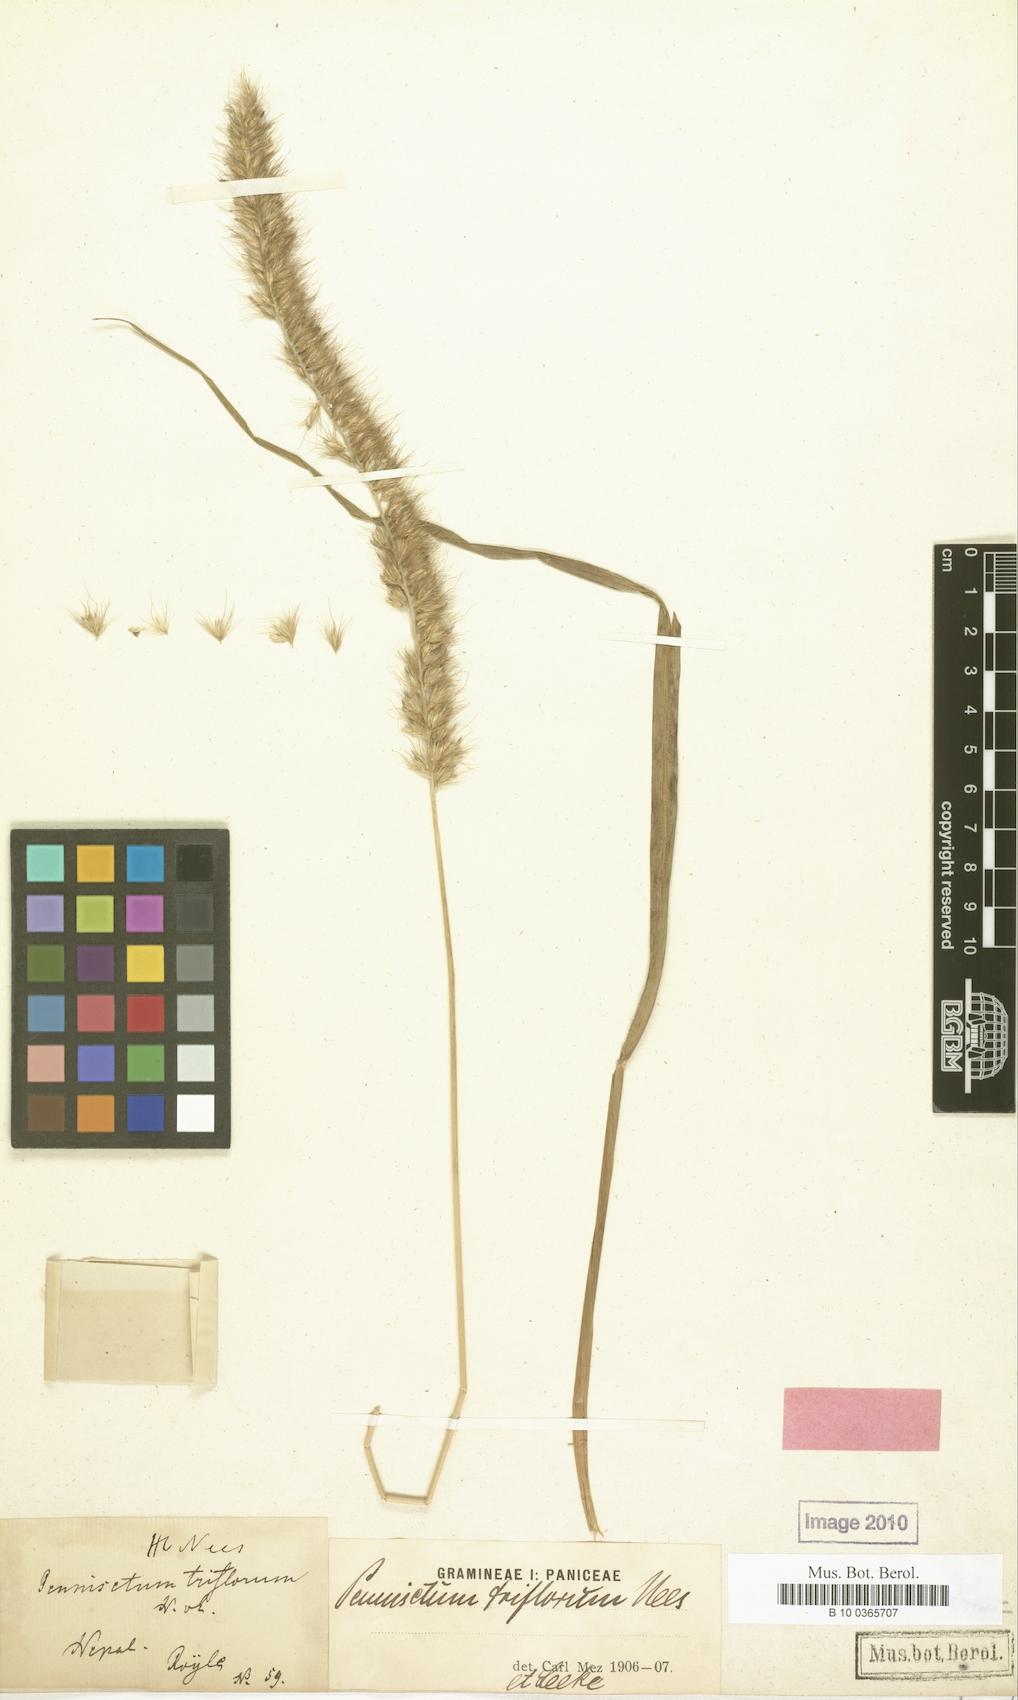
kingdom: Plantae
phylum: Tracheophyta
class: Liliopsida
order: Poales
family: Poaceae
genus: Cenchrus
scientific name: Cenchrus orientalis
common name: Oriental fountain grass
